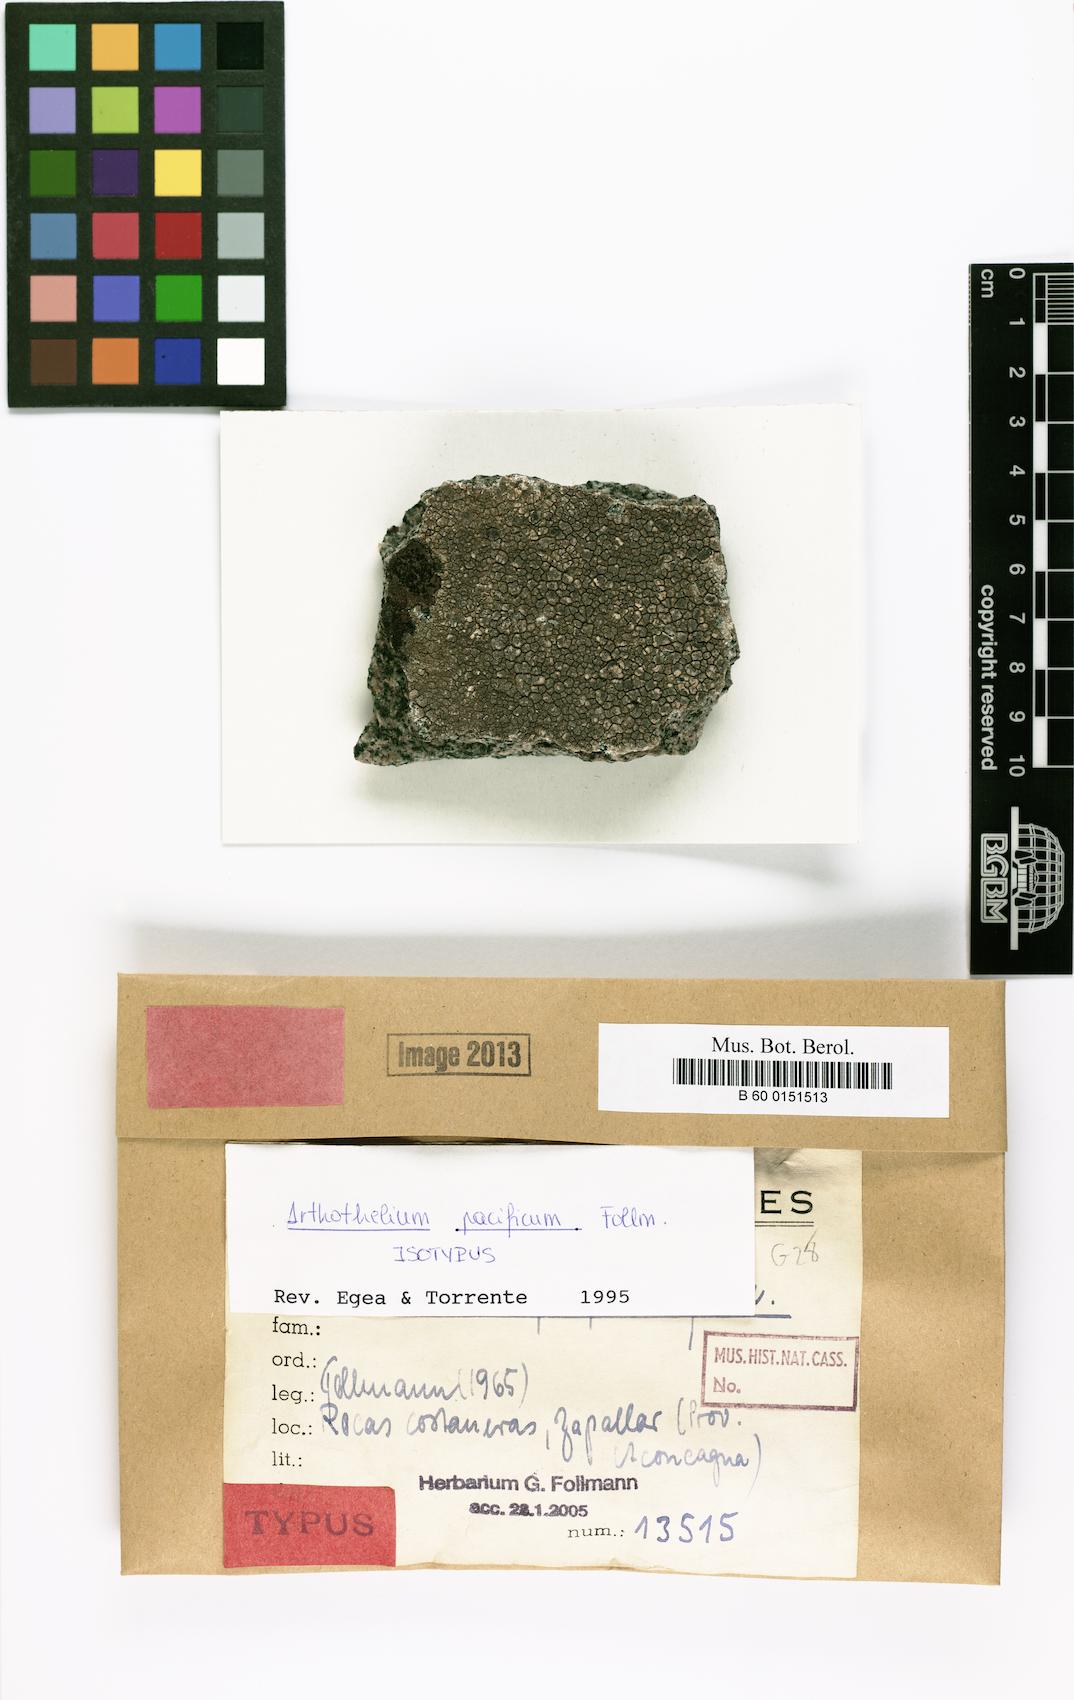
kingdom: Fungi
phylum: Ascomycota
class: Arthoniomycetes
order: Arthoniales
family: Arthoniaceae
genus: Arthothelium
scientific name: Arthothelium
